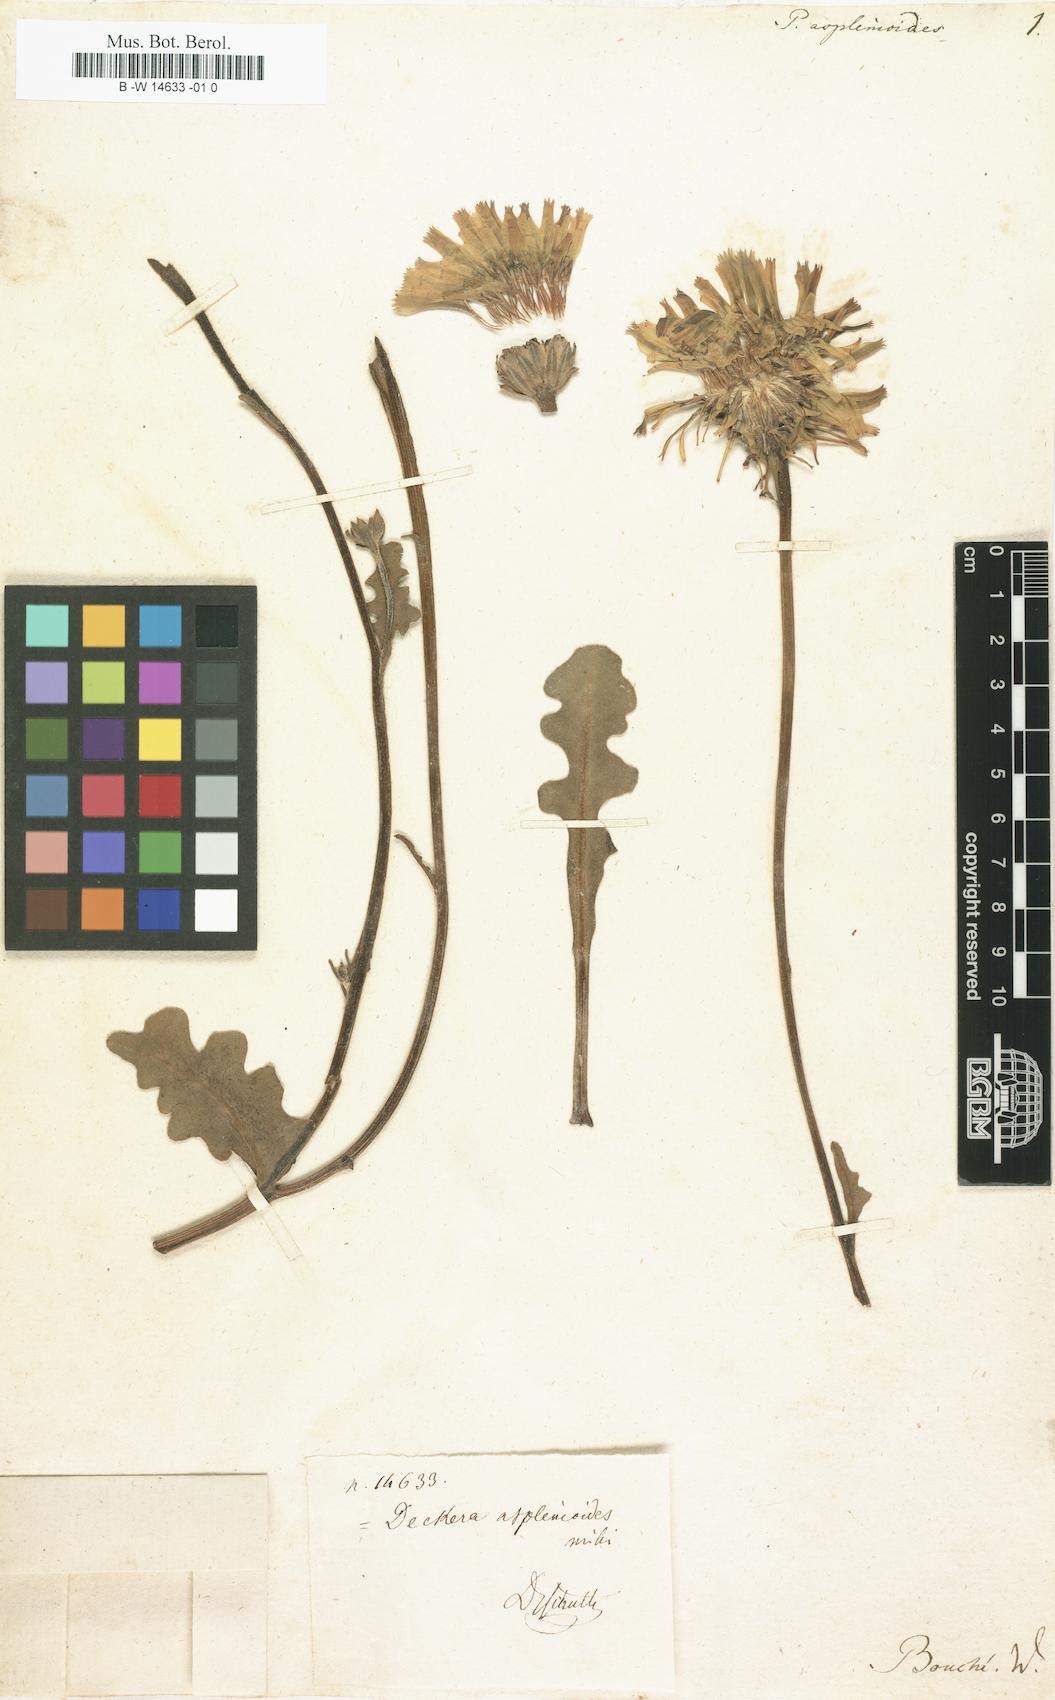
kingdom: Plantae
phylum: Tracheophyta
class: Magnoliopsida
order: Asterales
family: Asteraceae
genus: Picris
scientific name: Picris asplenioides
